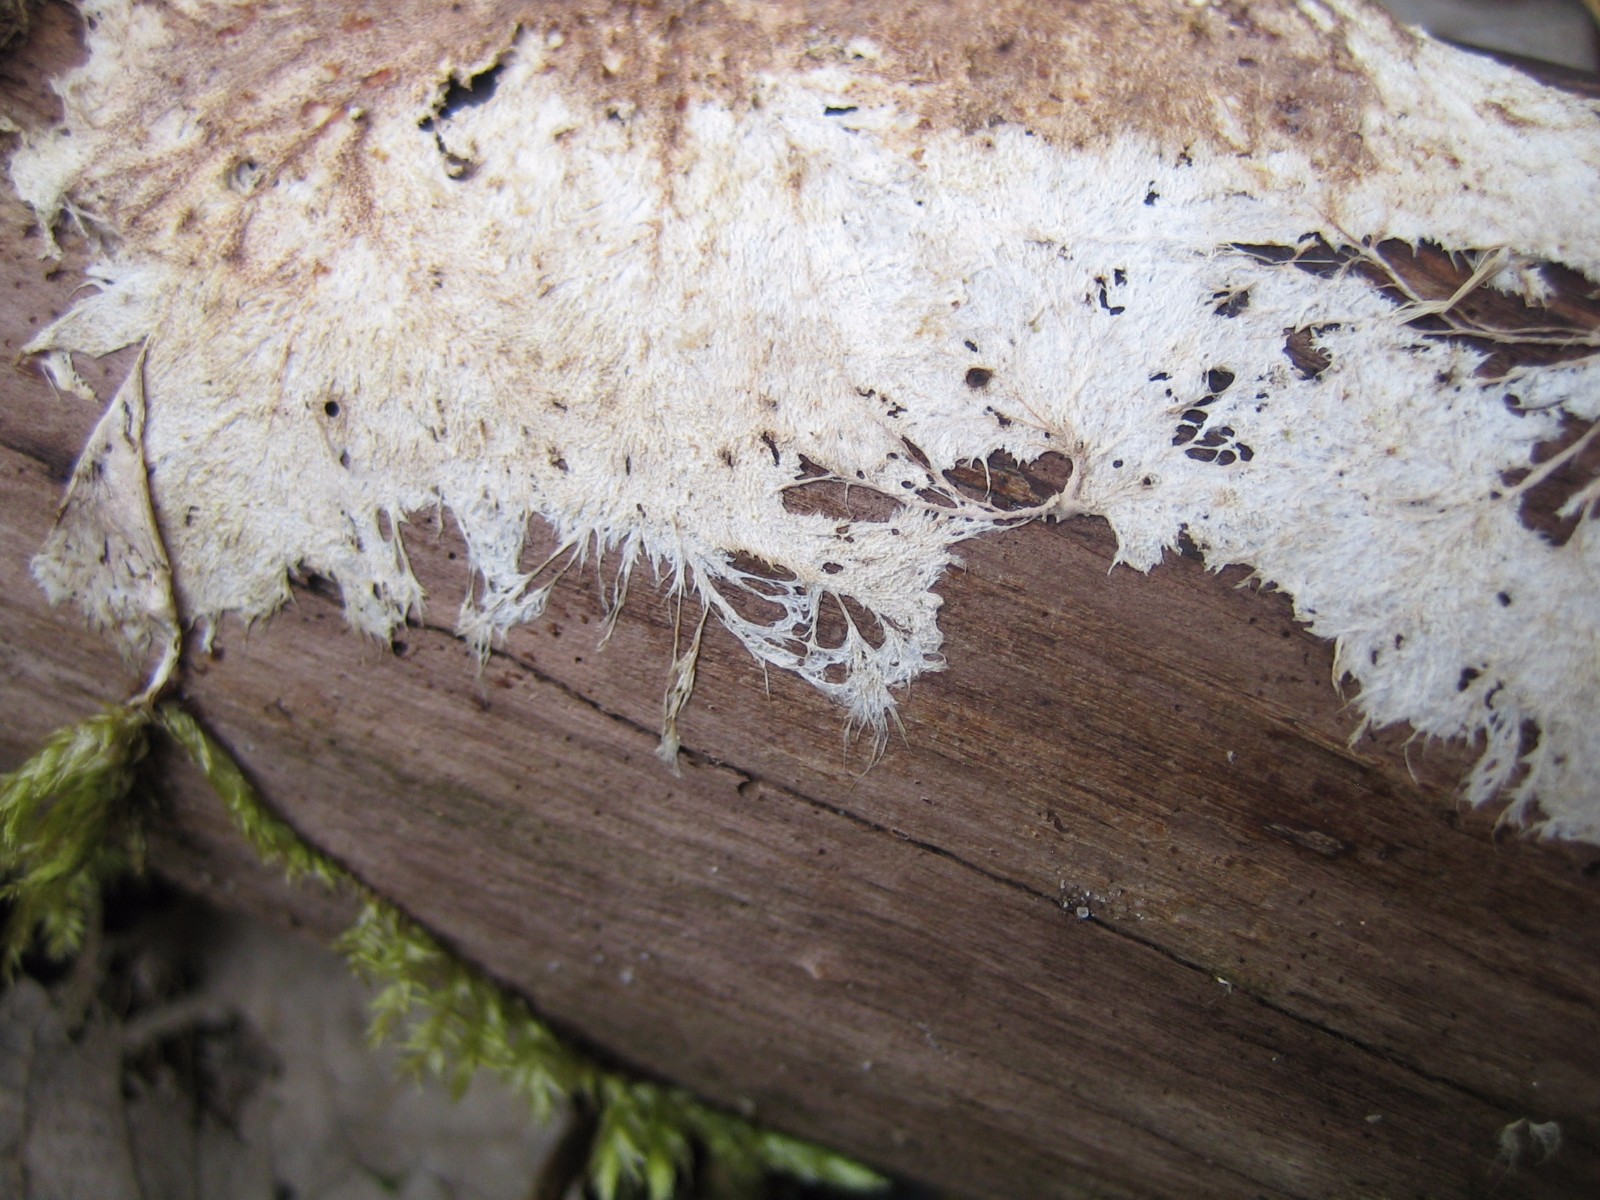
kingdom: Fungi
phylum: Basidiomycota
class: Agaricomycetes
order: Polyporales
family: Steccherinaceae
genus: Steccherinum
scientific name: Steccherinum fimbriatum
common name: trådet skønpig
